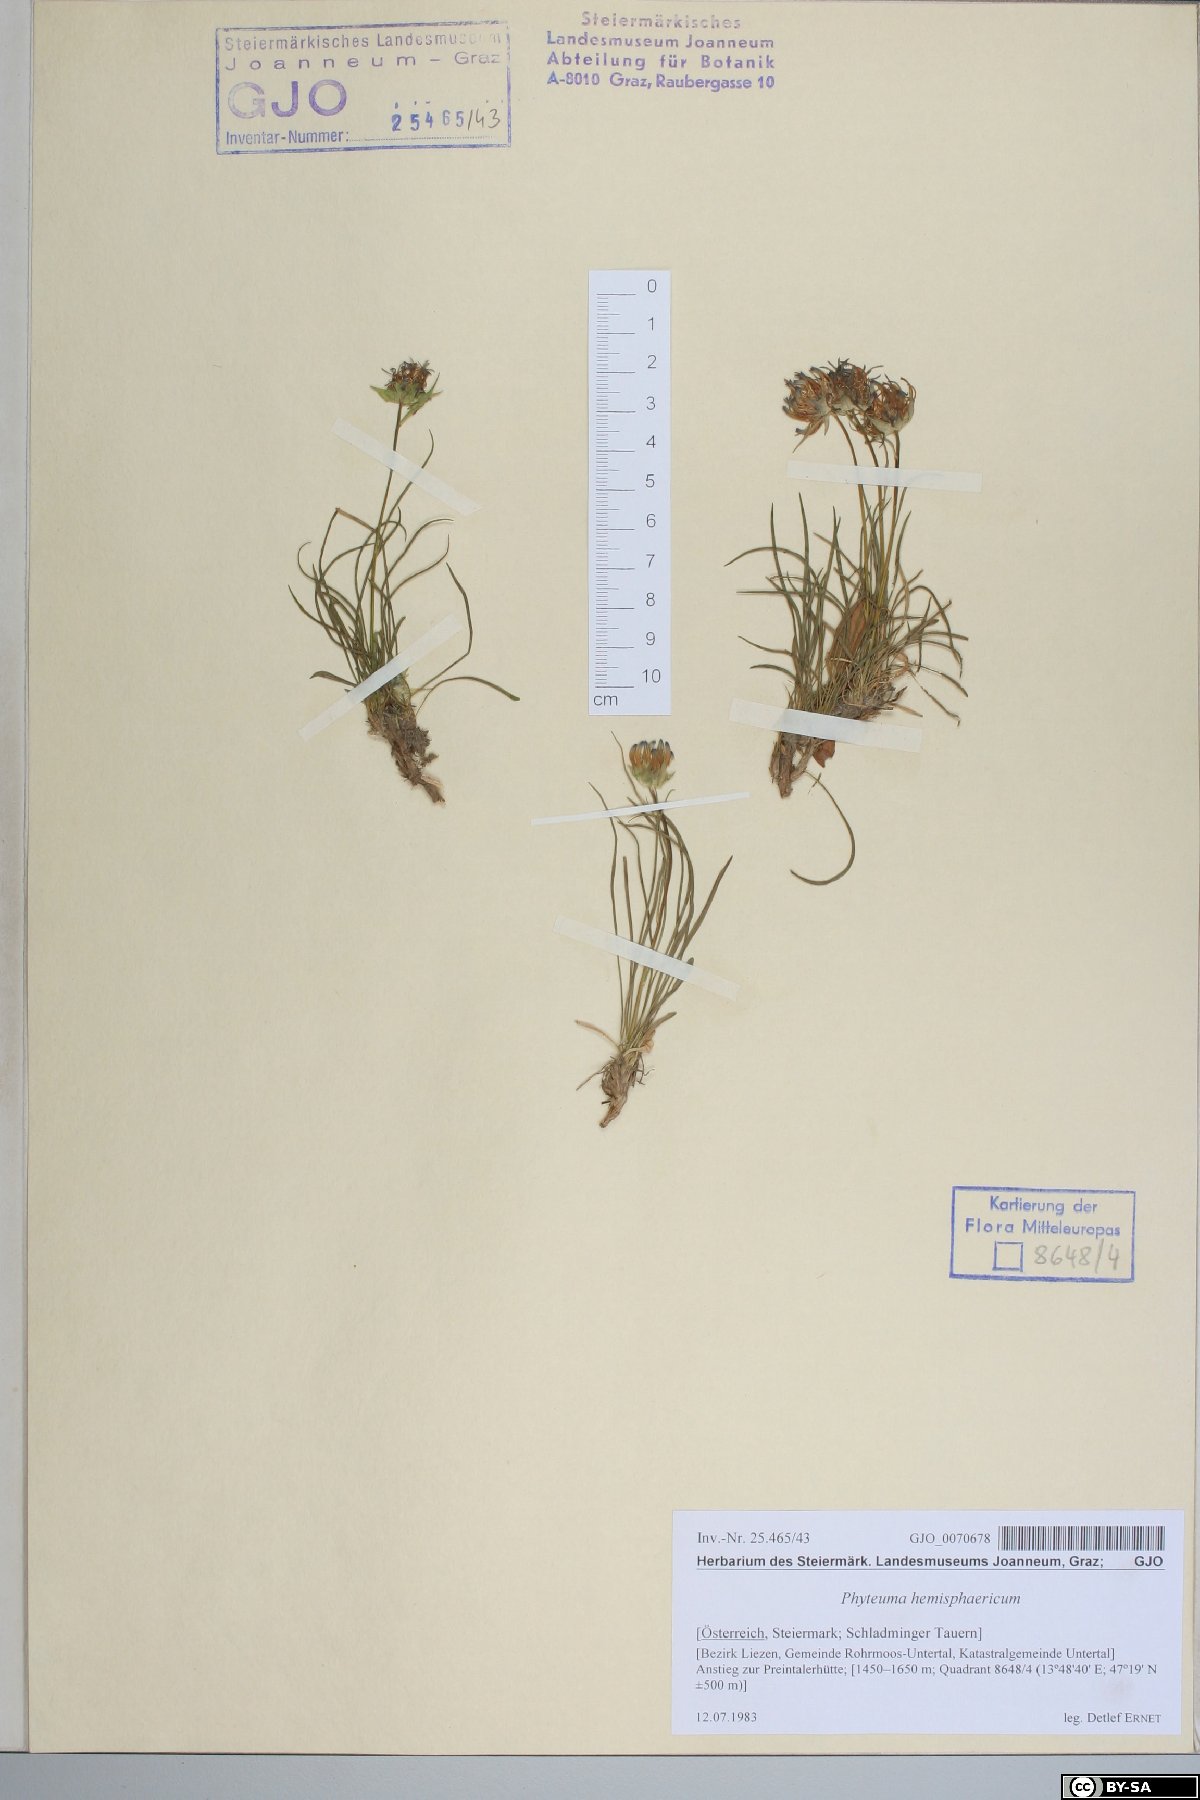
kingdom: Plantae
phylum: Tracheophyta
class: Magnoliopsida
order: Asterales
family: Campanulaceae
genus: Phyteuma
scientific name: Phyteuma hemisphaericum
